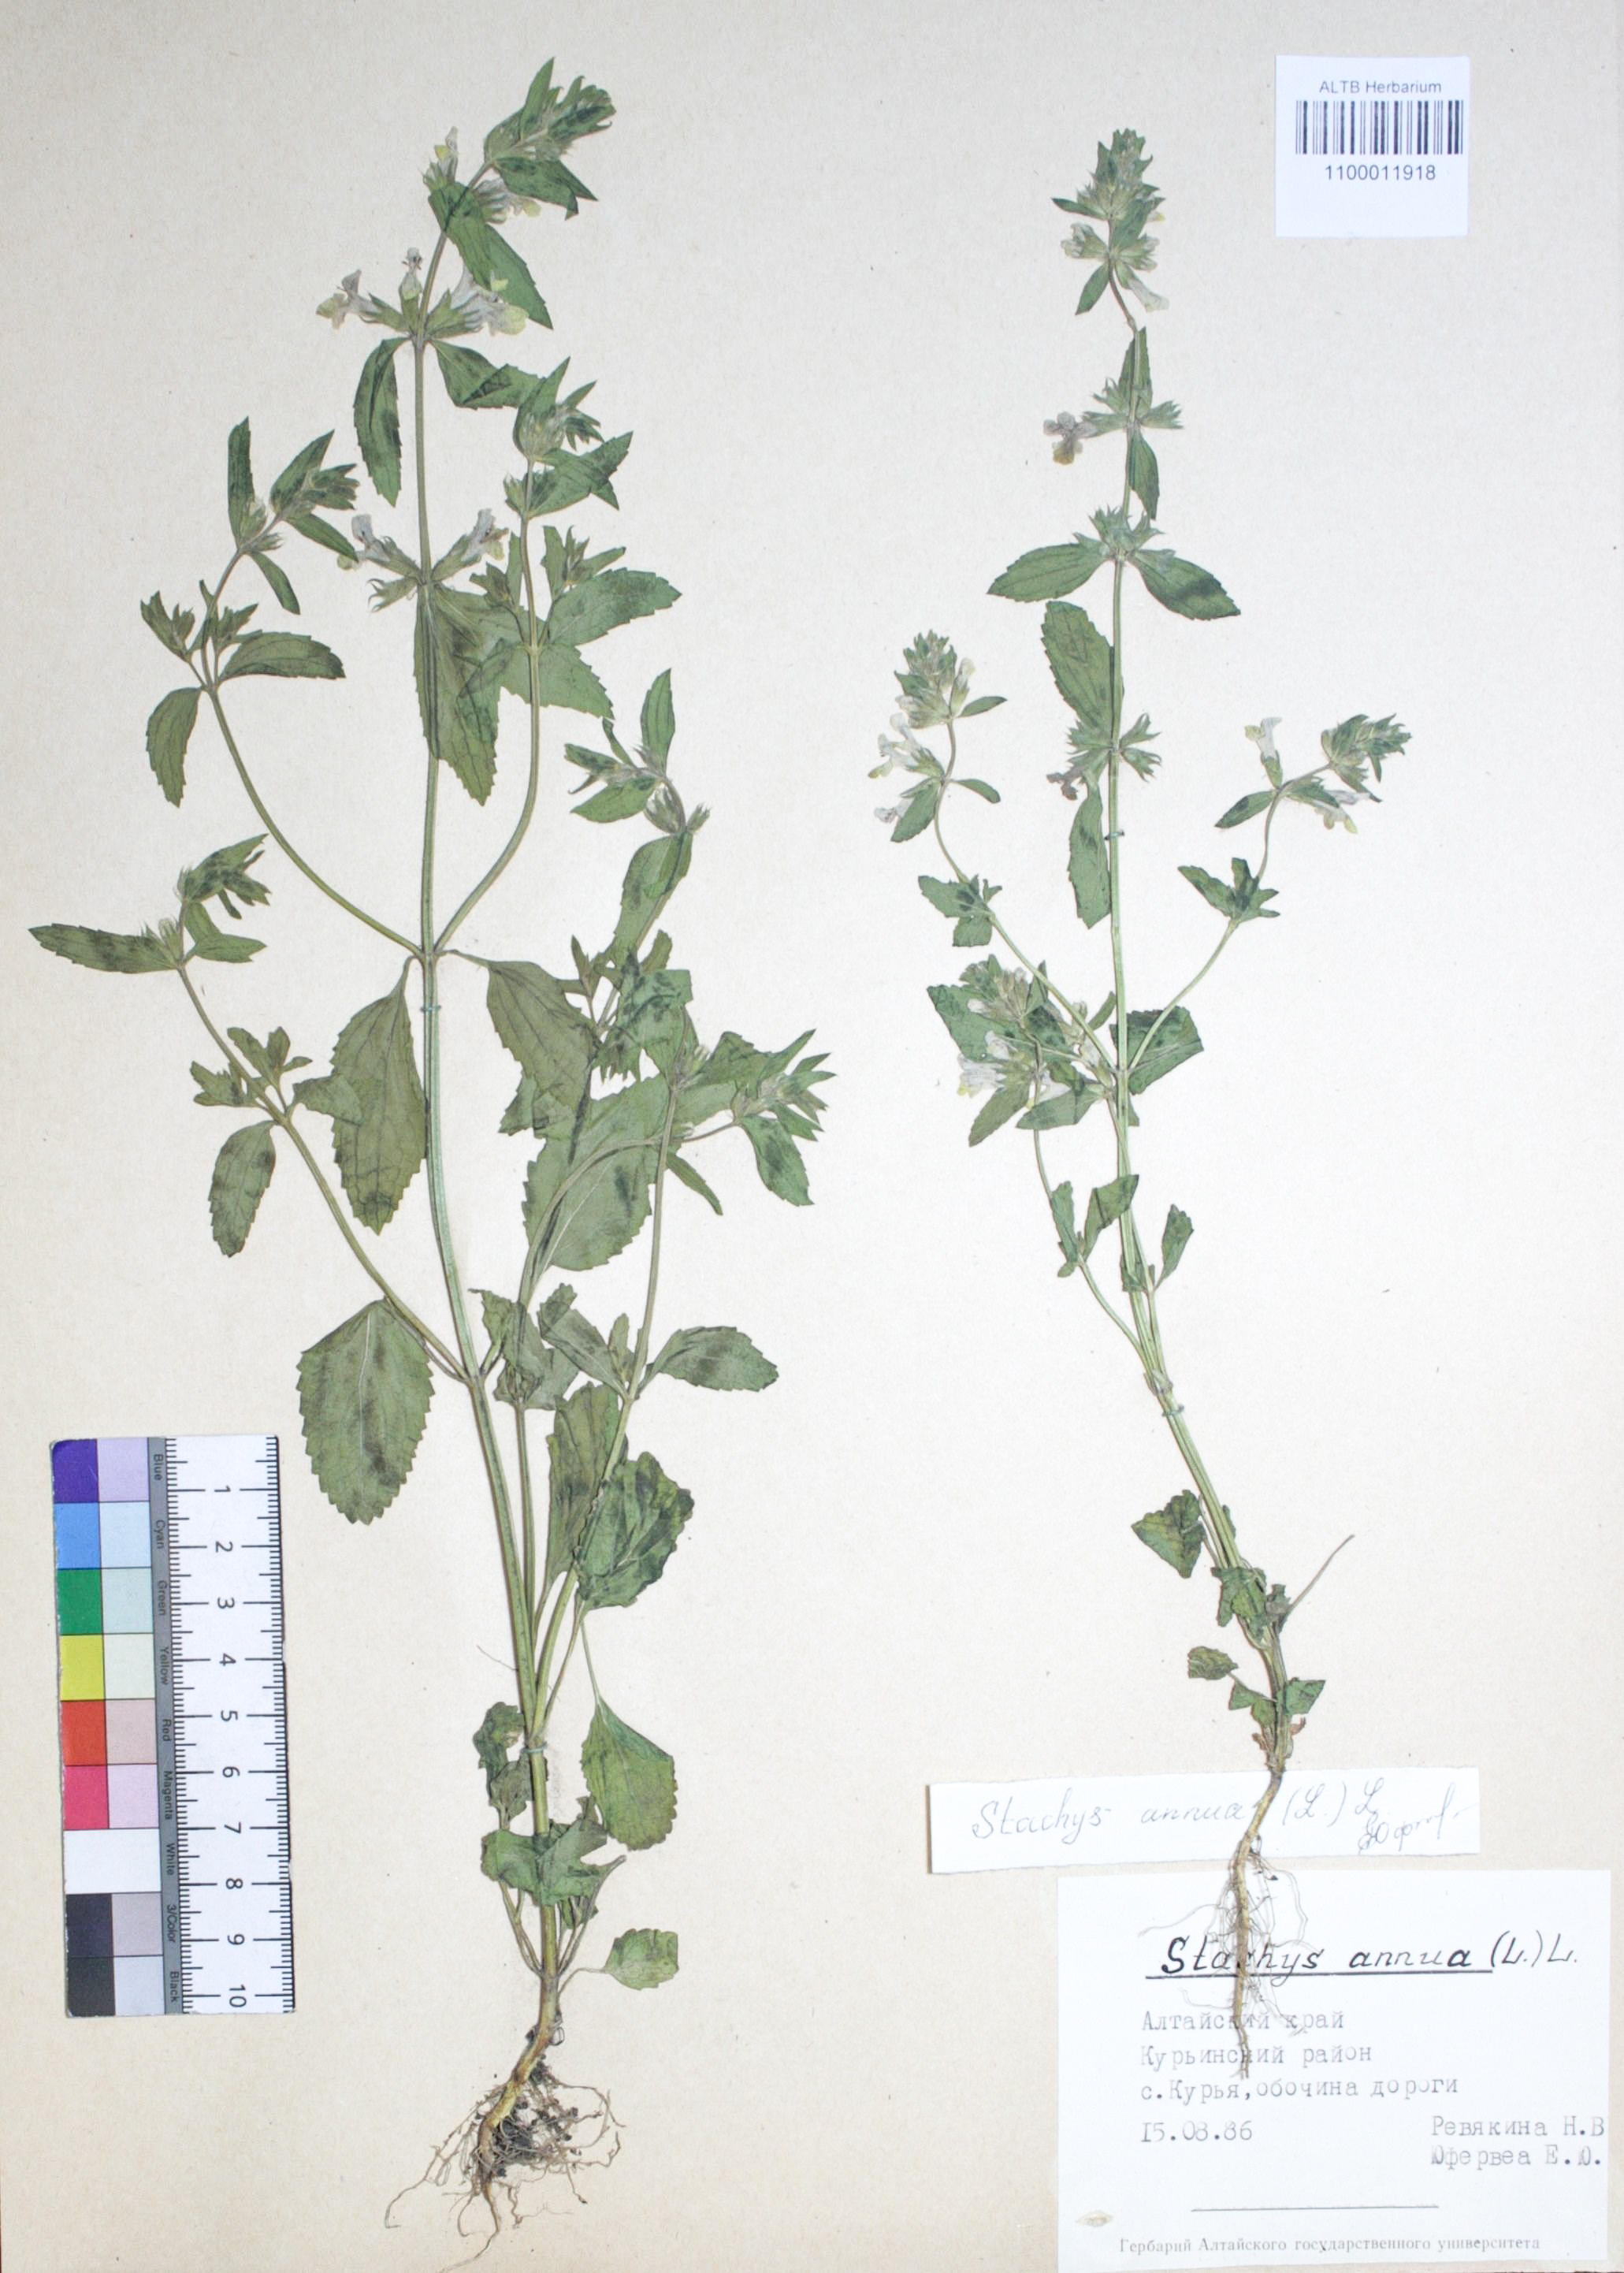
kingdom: Plantae
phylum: Tracheophyta
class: Magnoliopsida
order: Lamiales
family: Lamiaceae
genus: Stachys
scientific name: Stachys annua
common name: Annual yellow-woundwort
